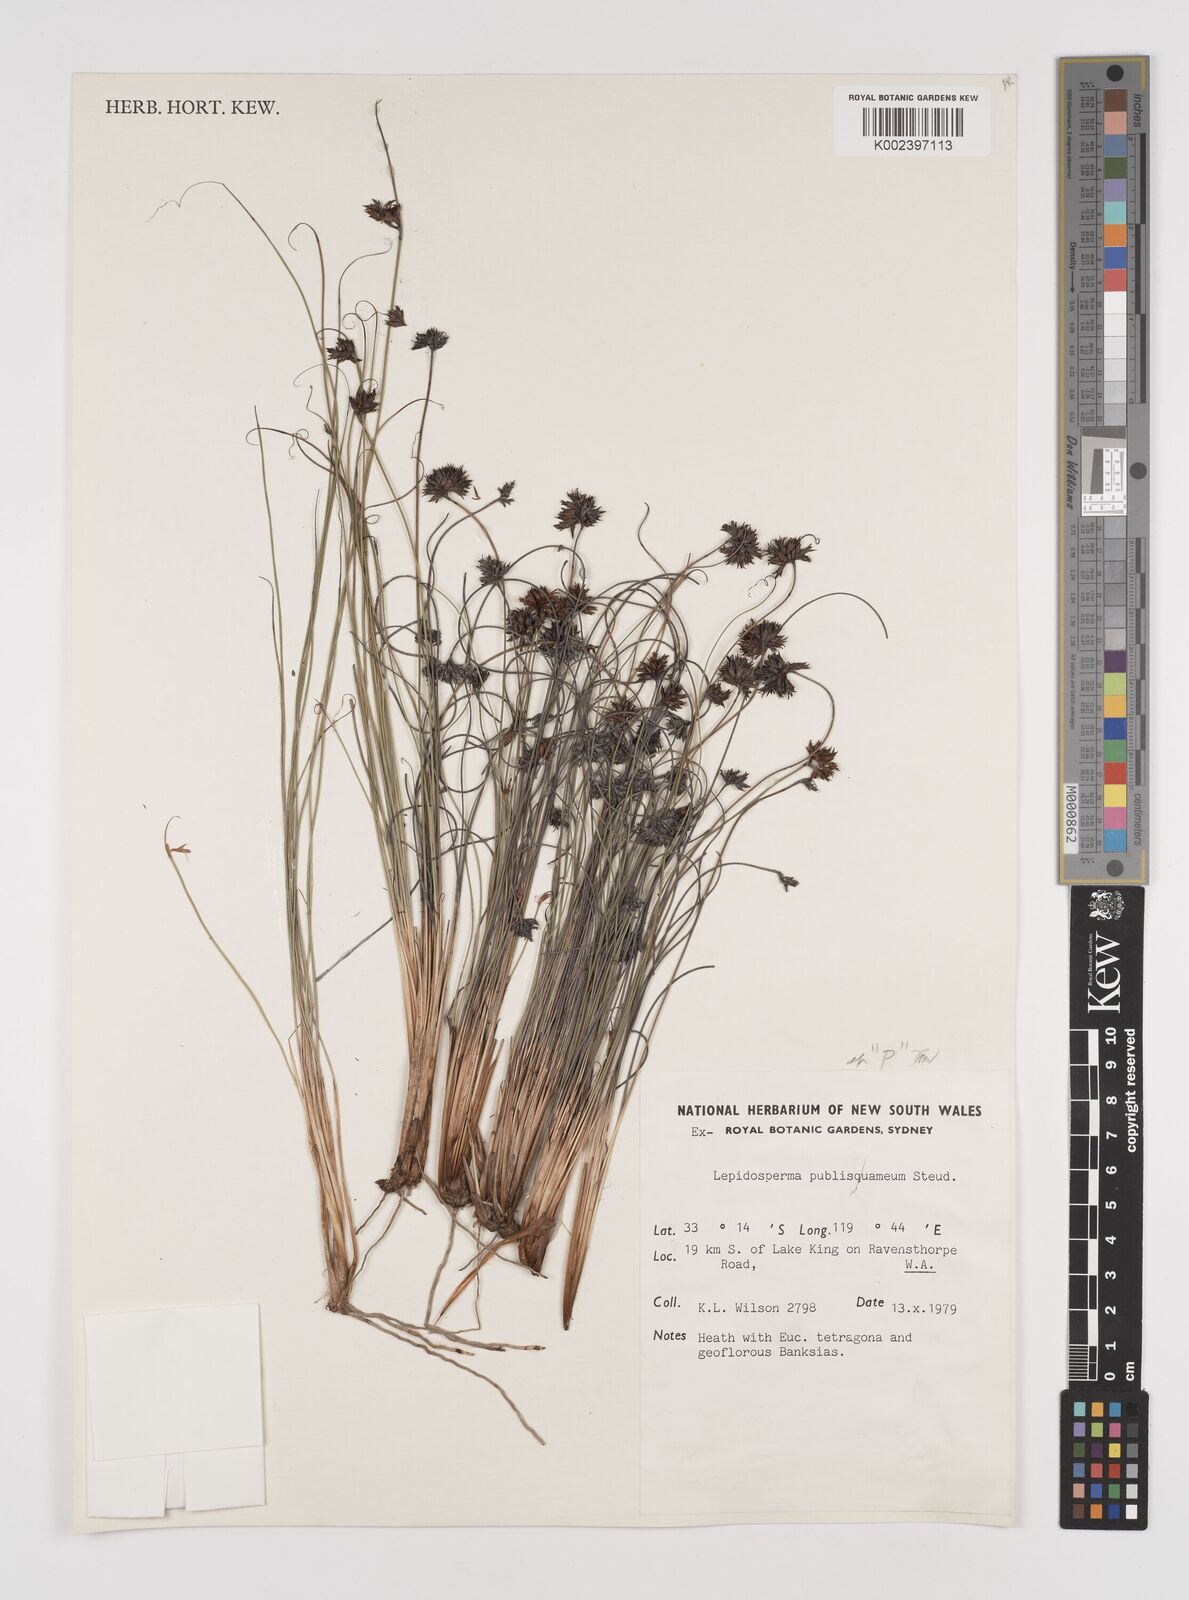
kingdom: Plantae
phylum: Tracheophyta
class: Liliopsida
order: Poales
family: Cyperaceae
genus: Lepidosperma
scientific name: Lepidosperma tenue
